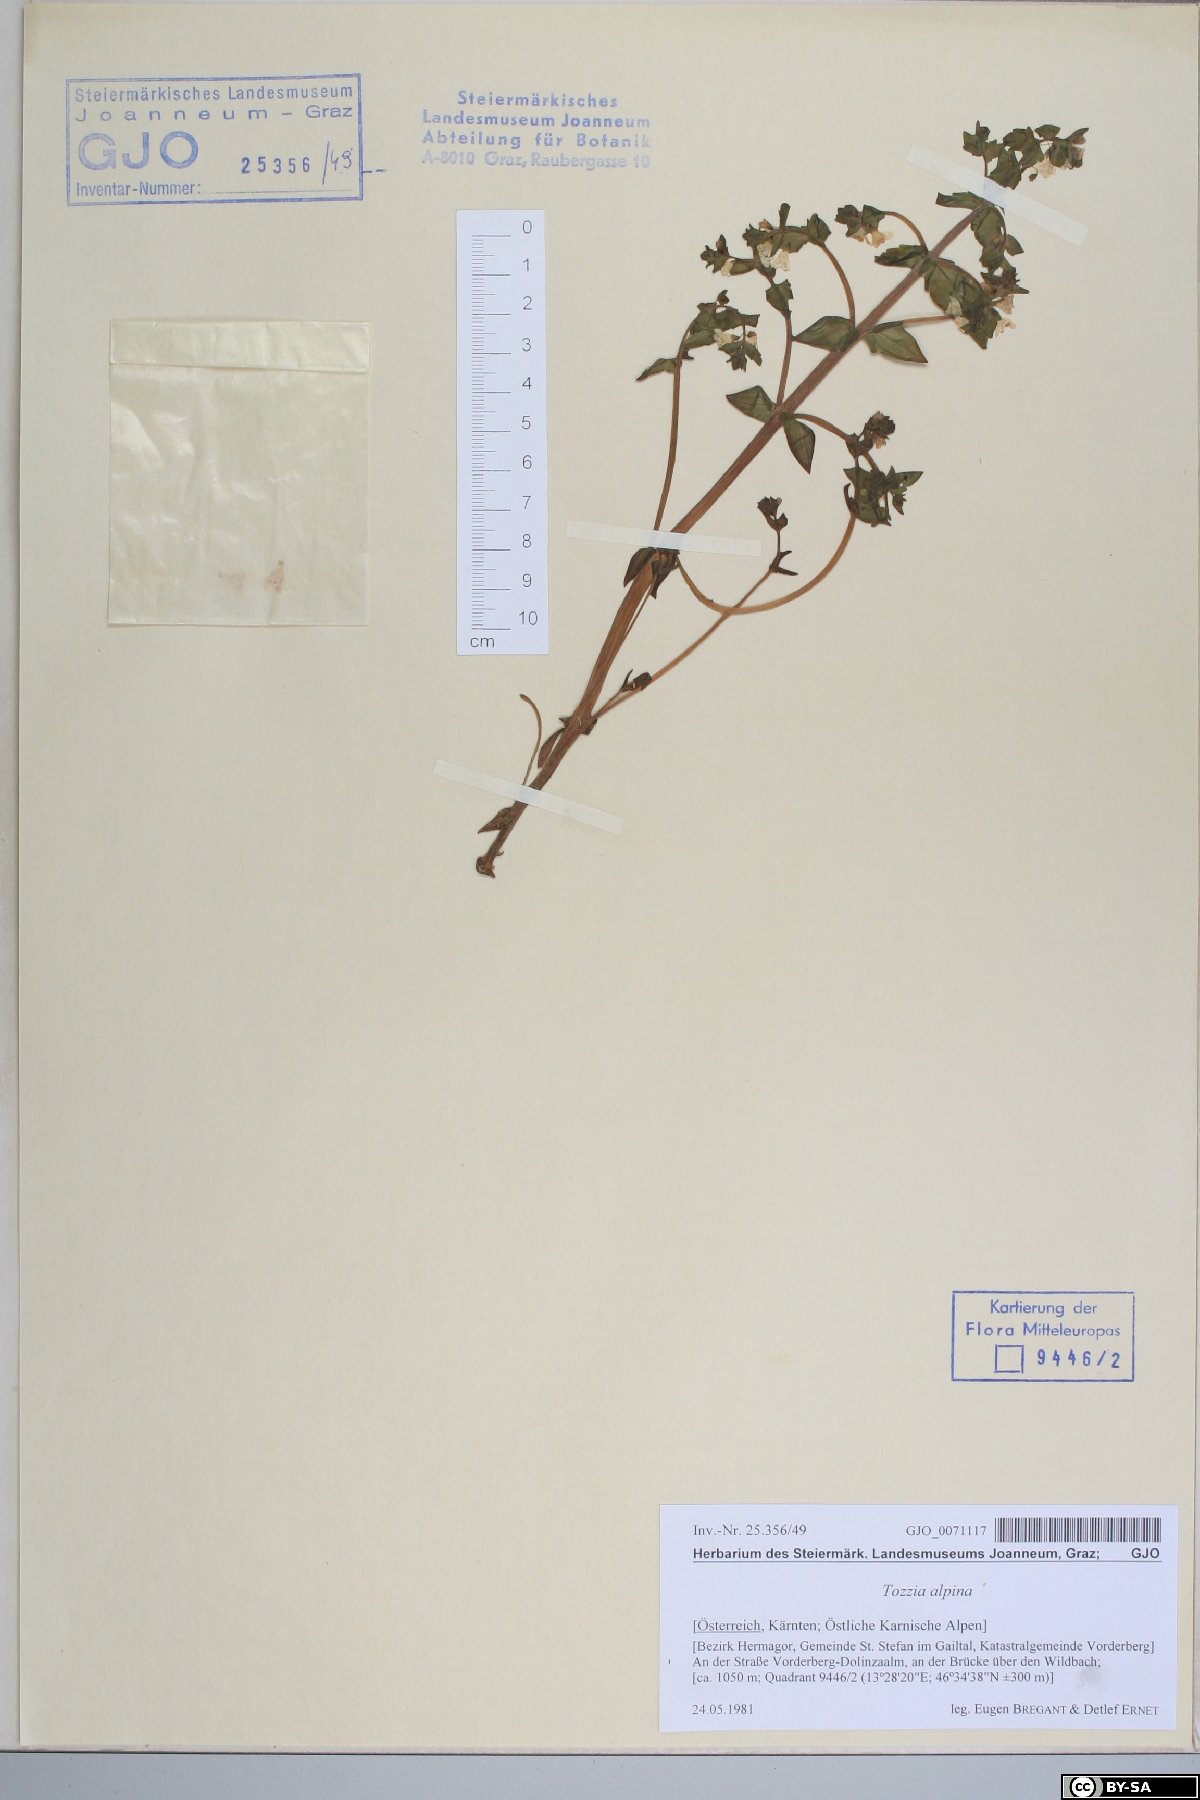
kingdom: Plantae
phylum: Tracheophyta
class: Magnoliopsida
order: Lamiales
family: Orobanchaceae
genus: Tozzia
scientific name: Tozzia alpina
